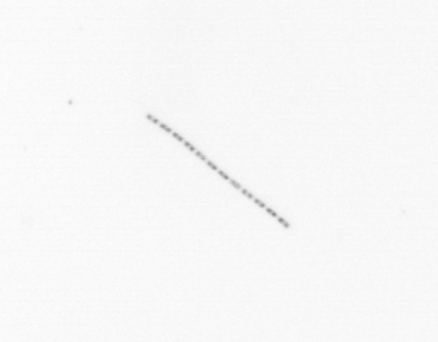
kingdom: Chromista
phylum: Ochrophyta
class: Bacillariophyceae
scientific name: Bacillariophyceae
